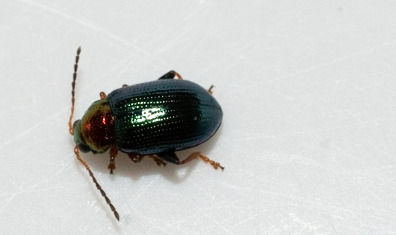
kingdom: Animalia
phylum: Arthropoda
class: Insecta
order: Coleoptera
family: Chrysomelidae
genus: Crepidodera
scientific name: Crepidodera aurata
